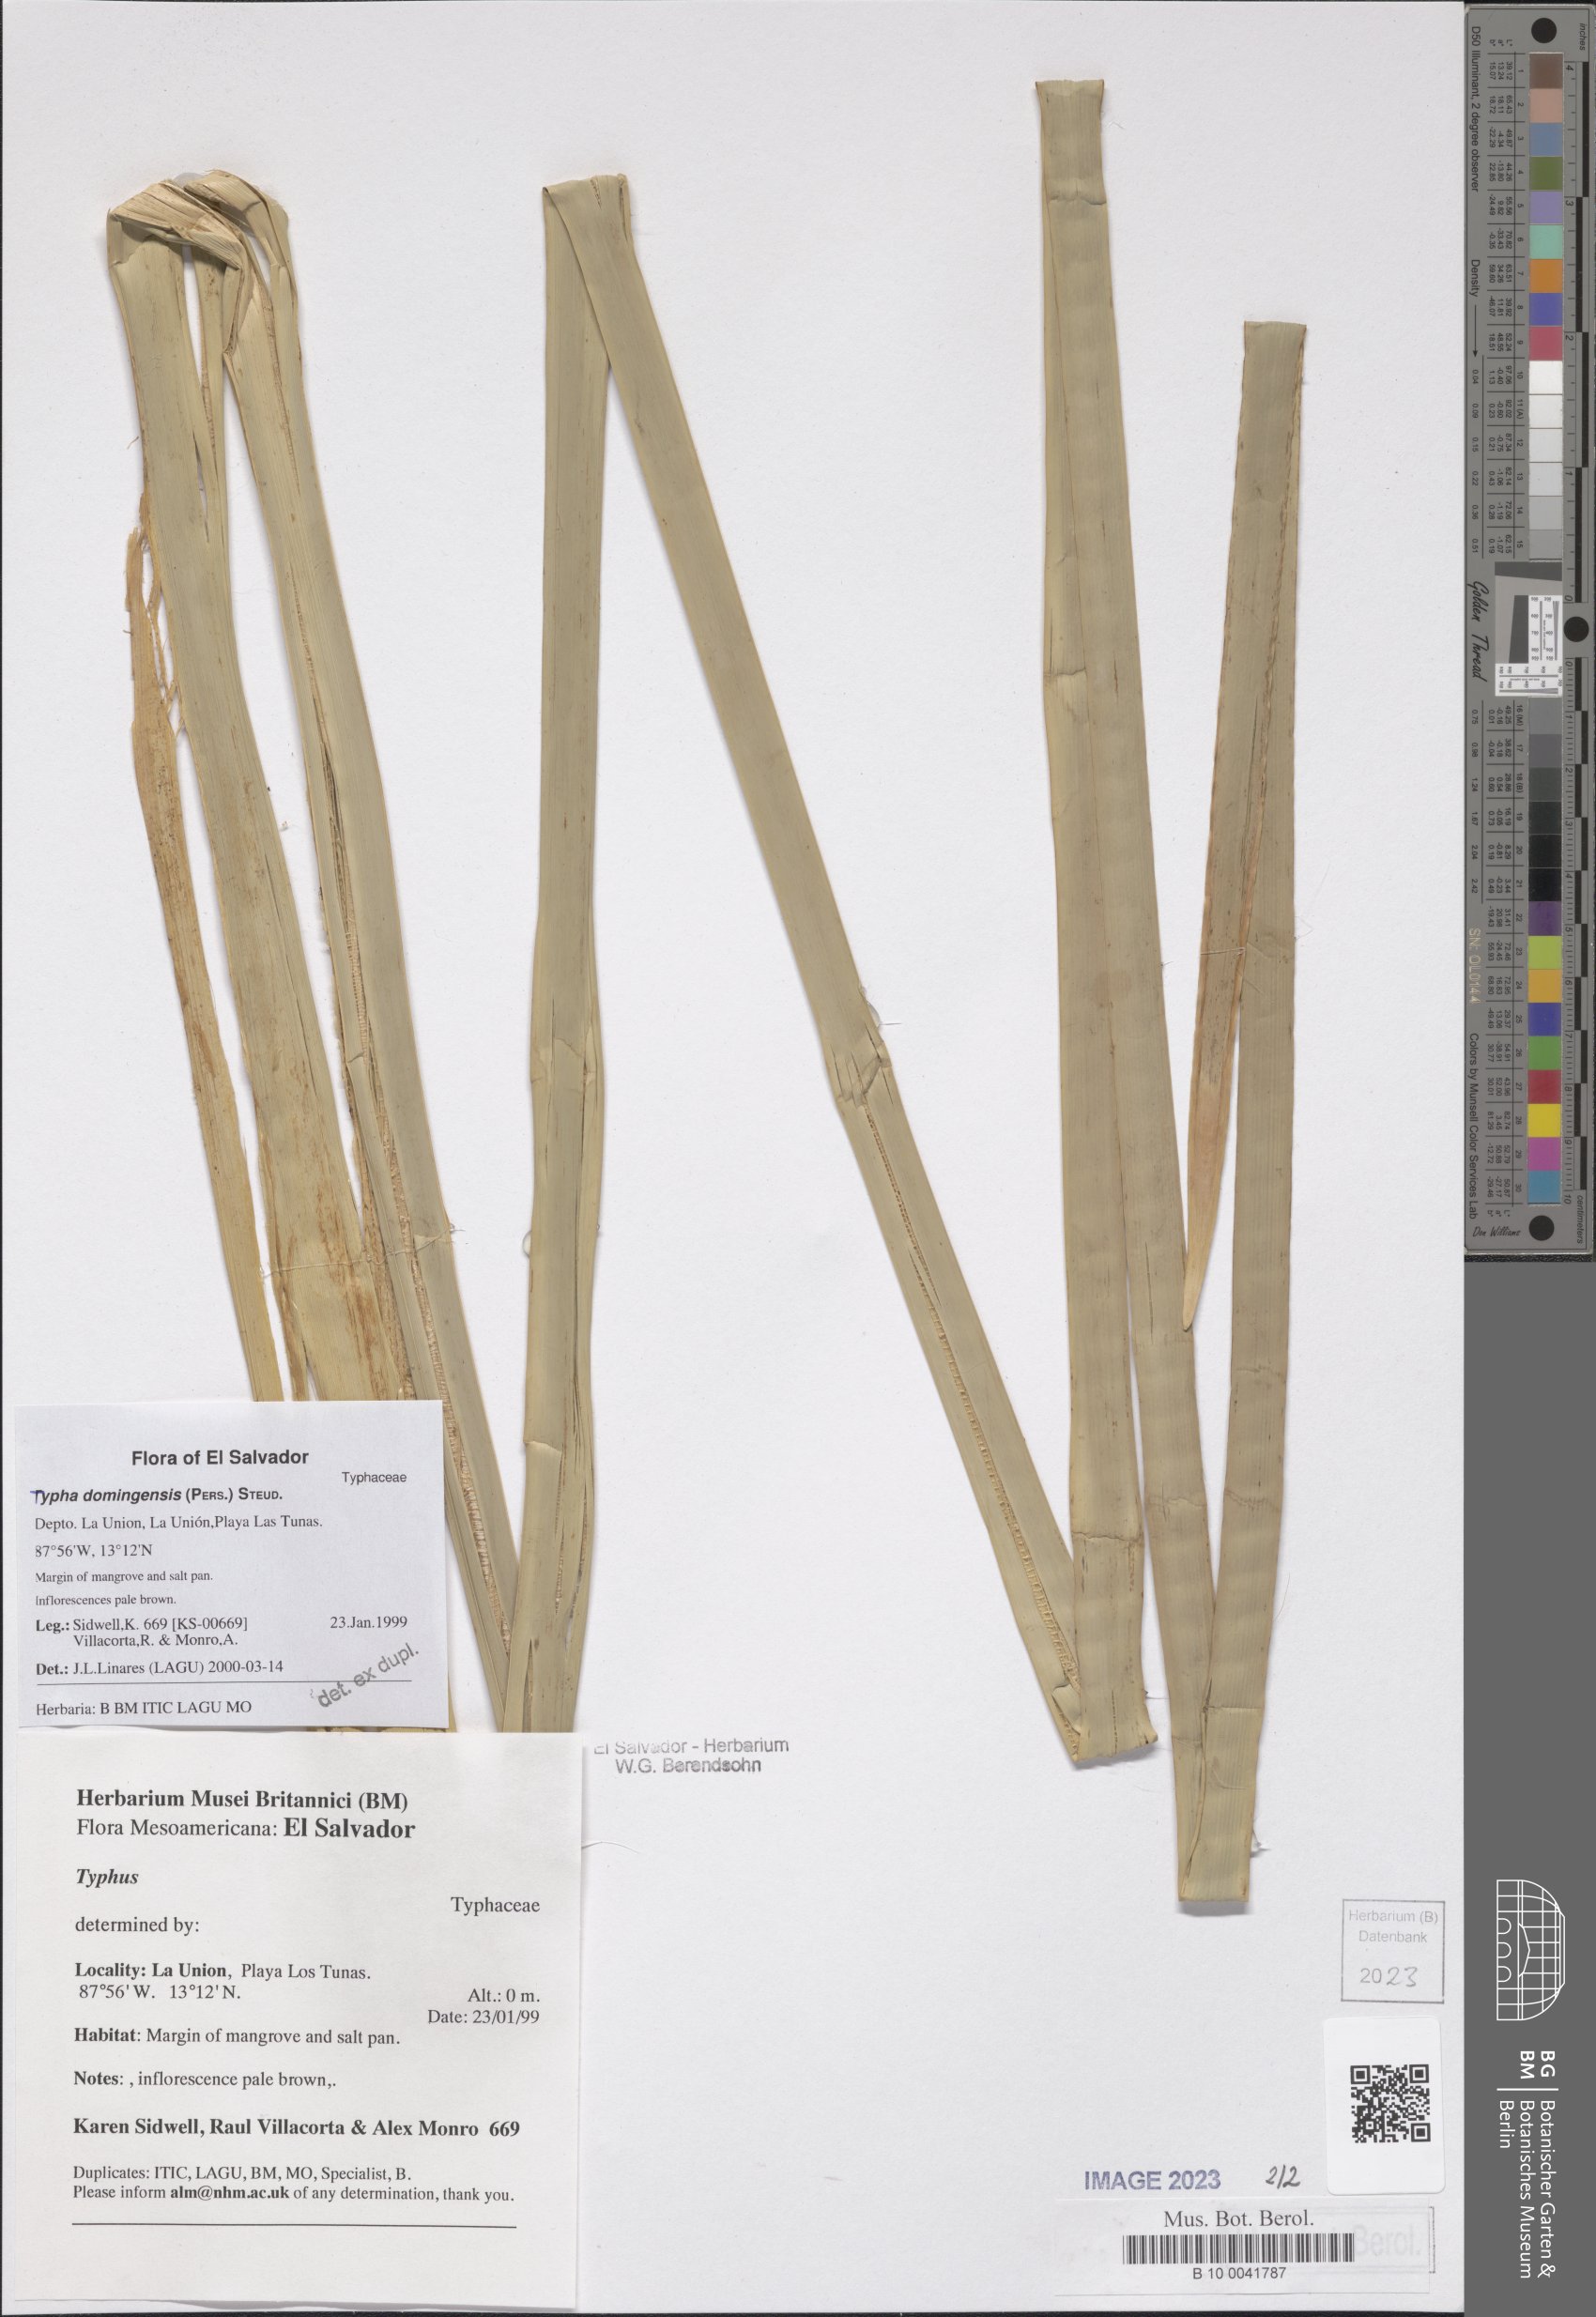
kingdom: Plantae
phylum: Tracheophyta
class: Liliopsida
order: Poales
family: Typhaceae
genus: Typha
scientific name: Typha domingensis
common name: Southern cattail
